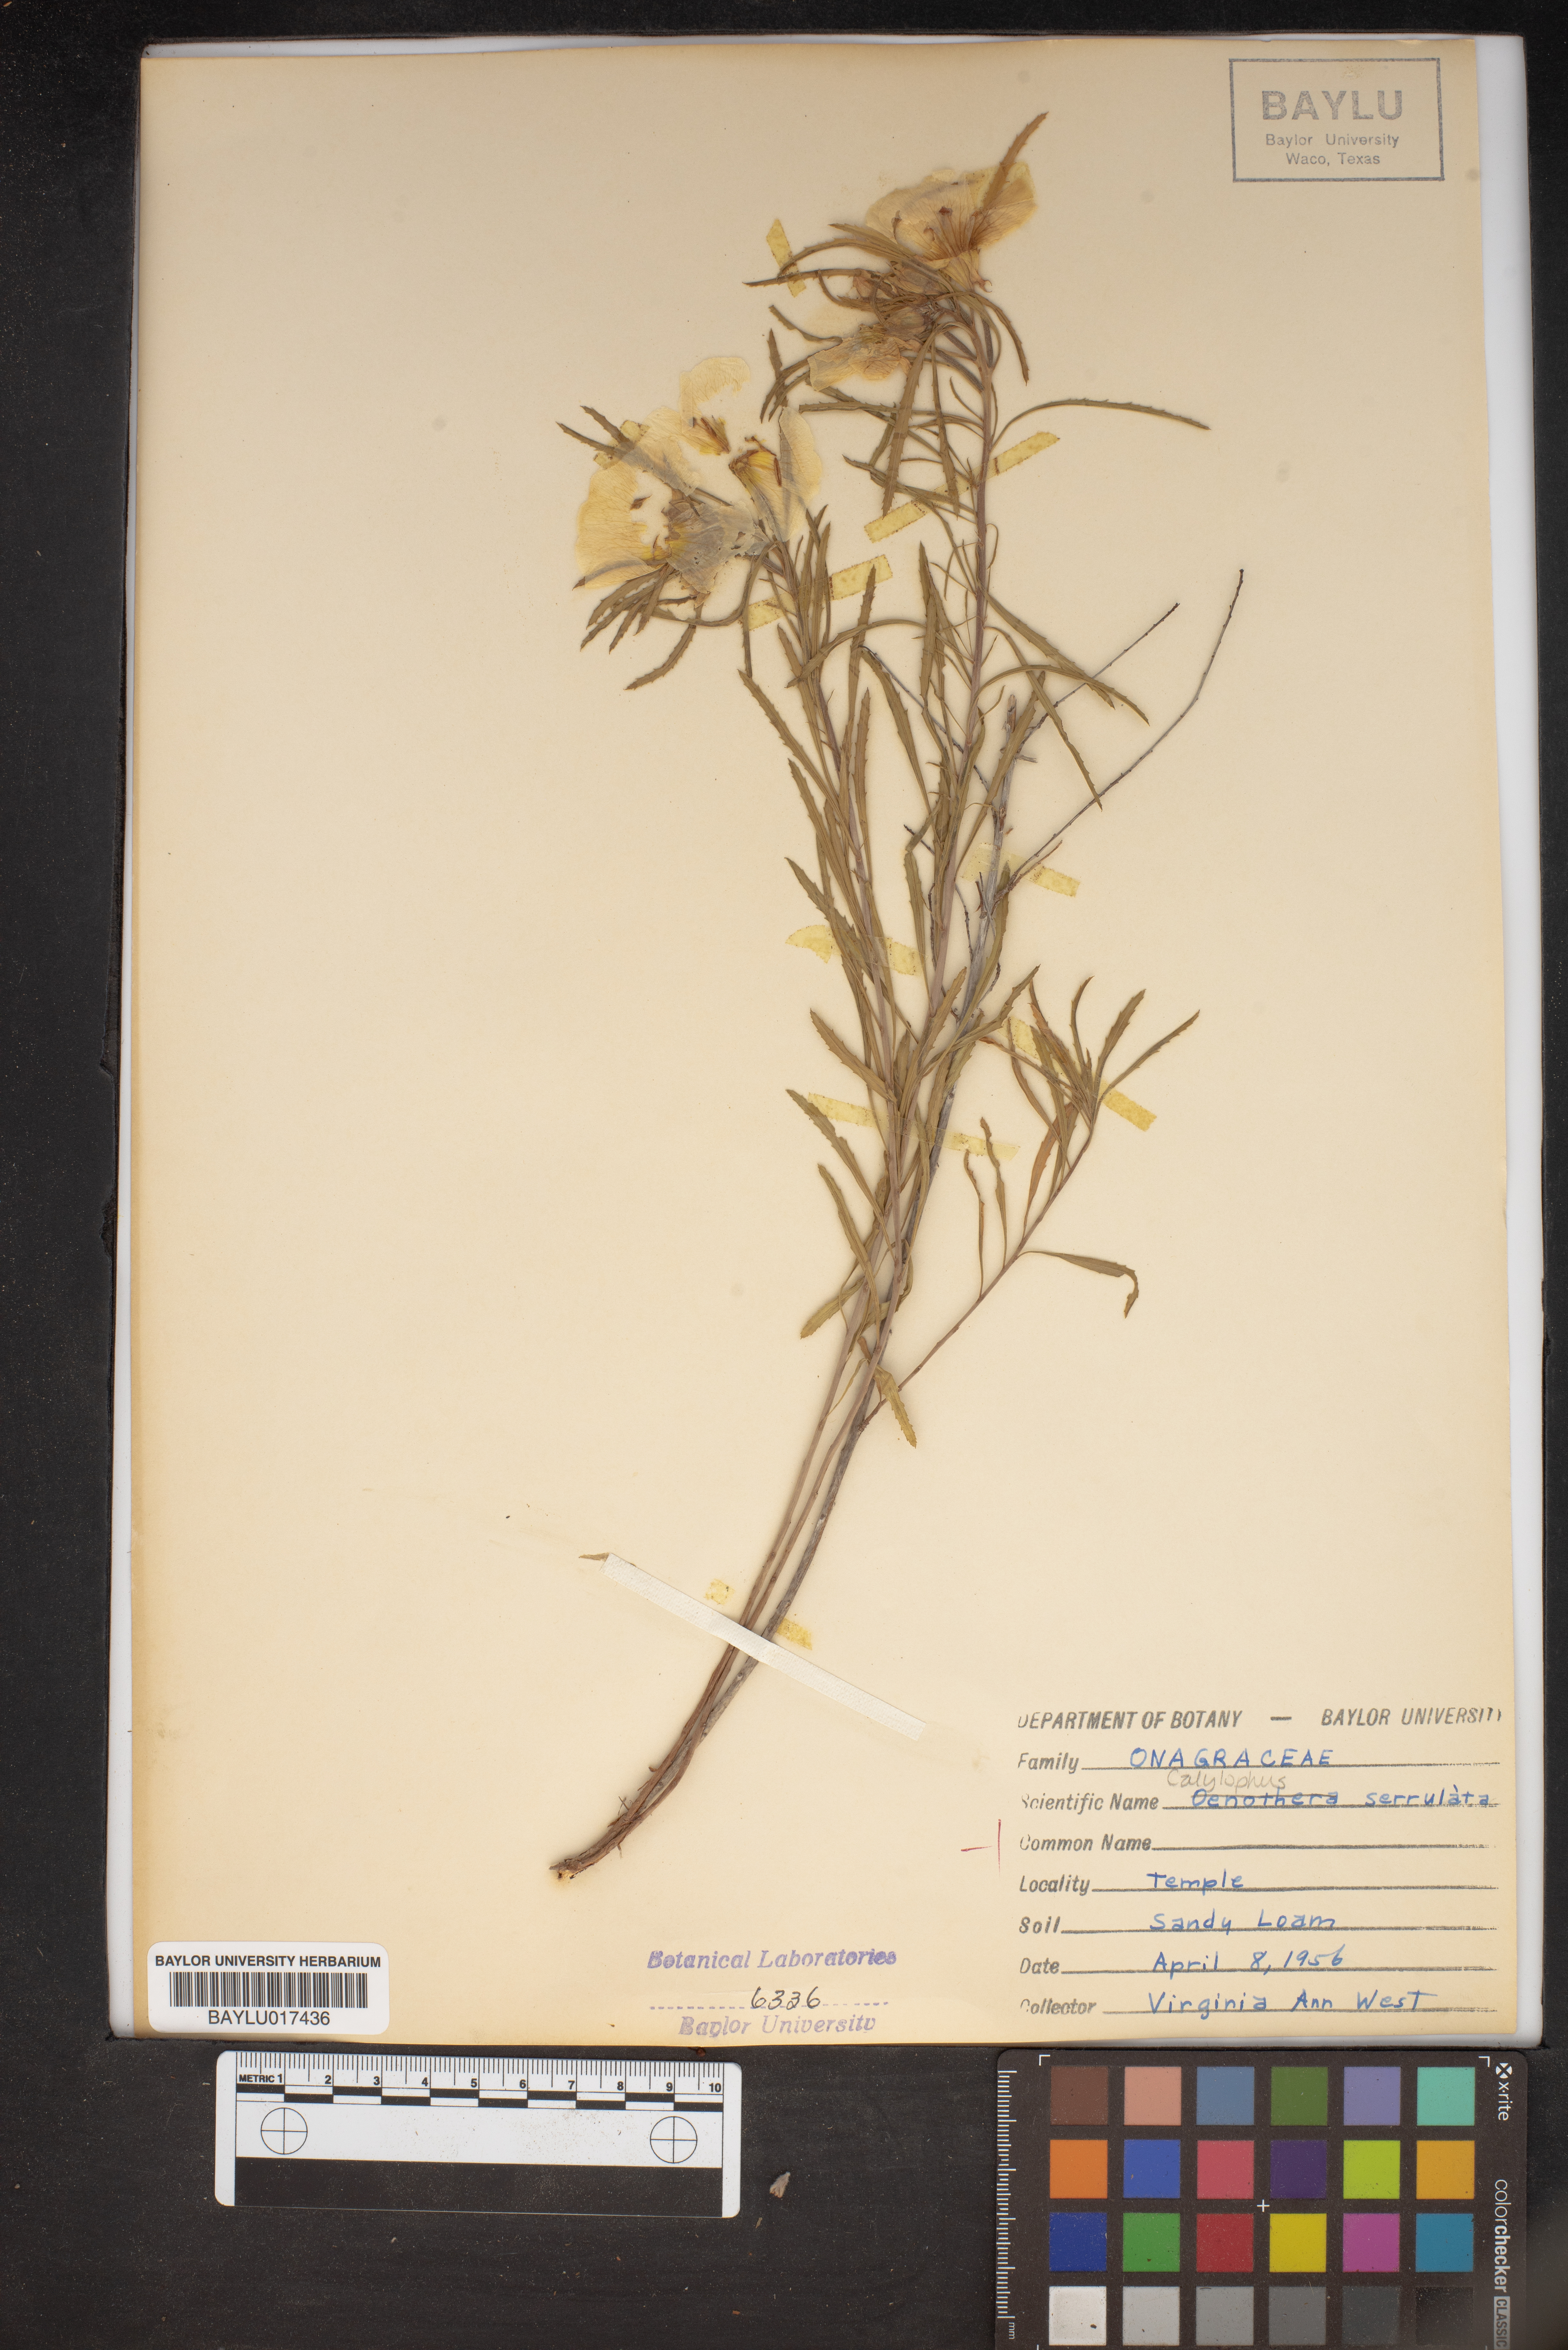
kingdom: Plantae
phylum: Tracheophyta
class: Magnoliopsida
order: Myrtales
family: Onagraceae
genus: Oenothera
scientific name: Oenothera serrulata
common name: Half-shrub calylophus
